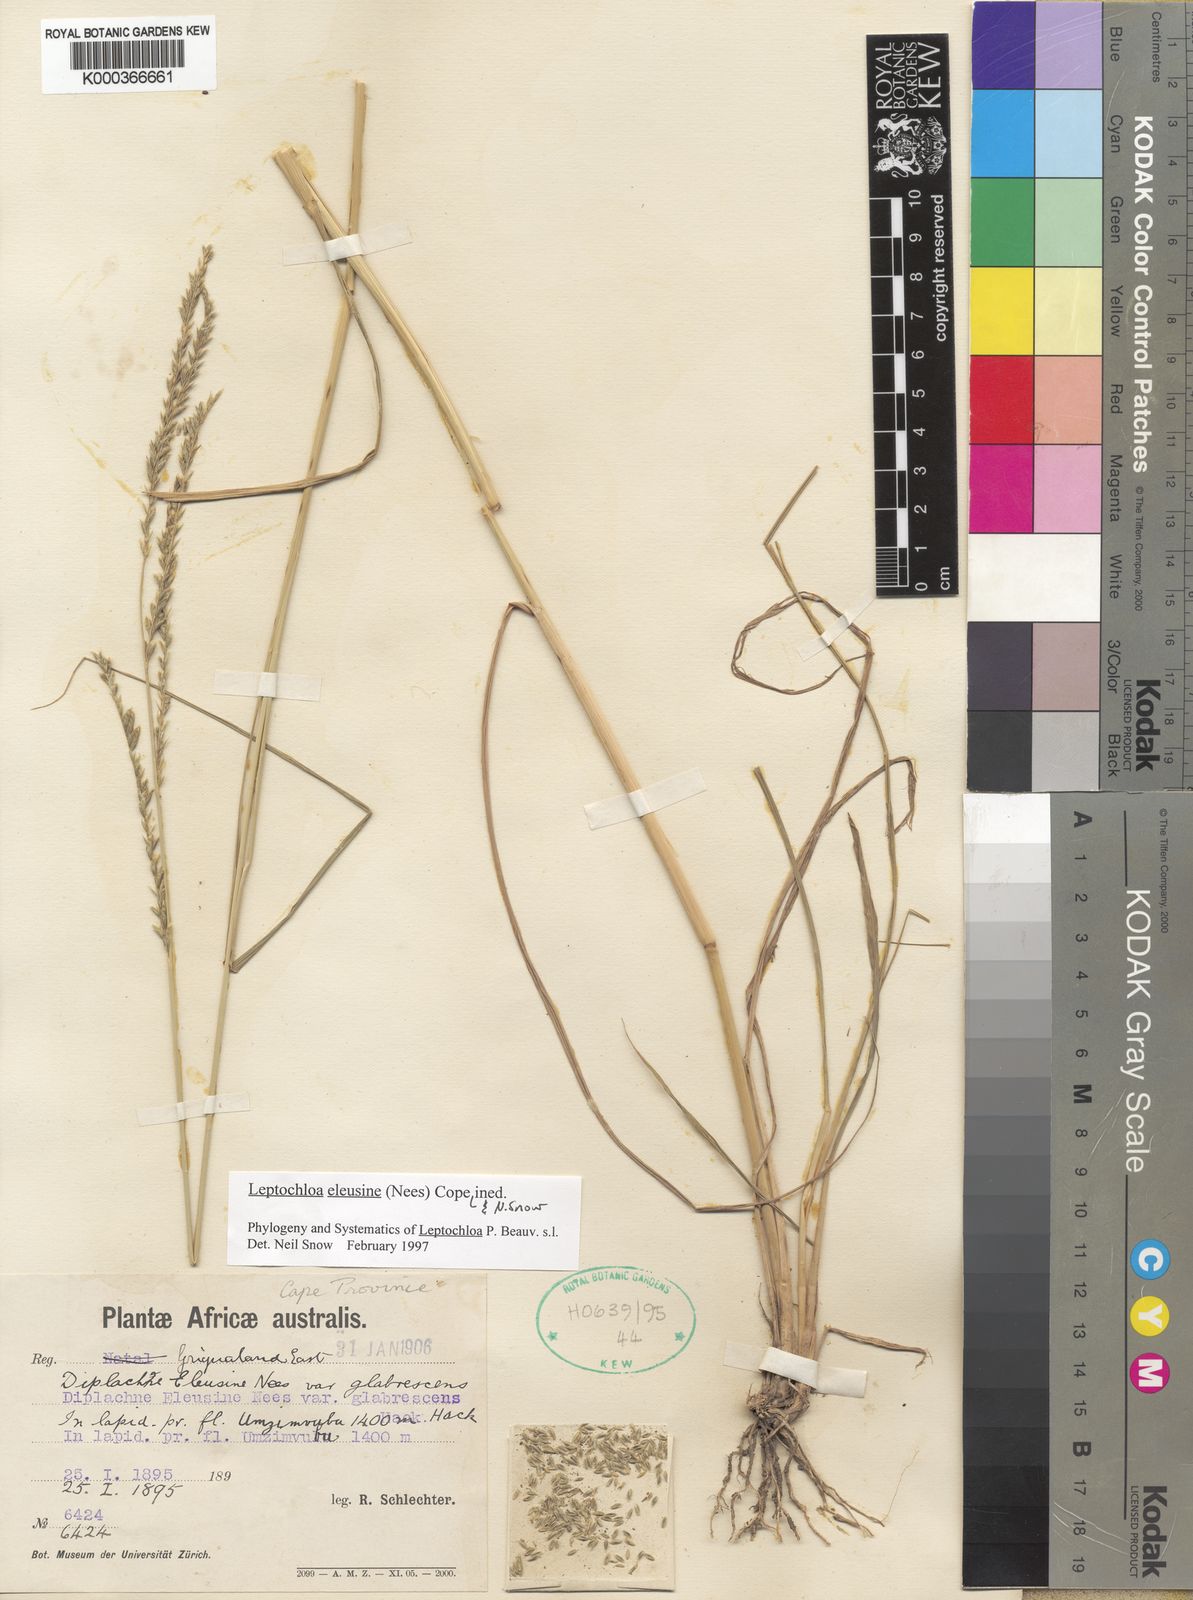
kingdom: Plantae
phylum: Tracheophyta
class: Liliopsida
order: Poales
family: Poaceae
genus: Disakisperma
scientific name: Disakisperma eleusine
